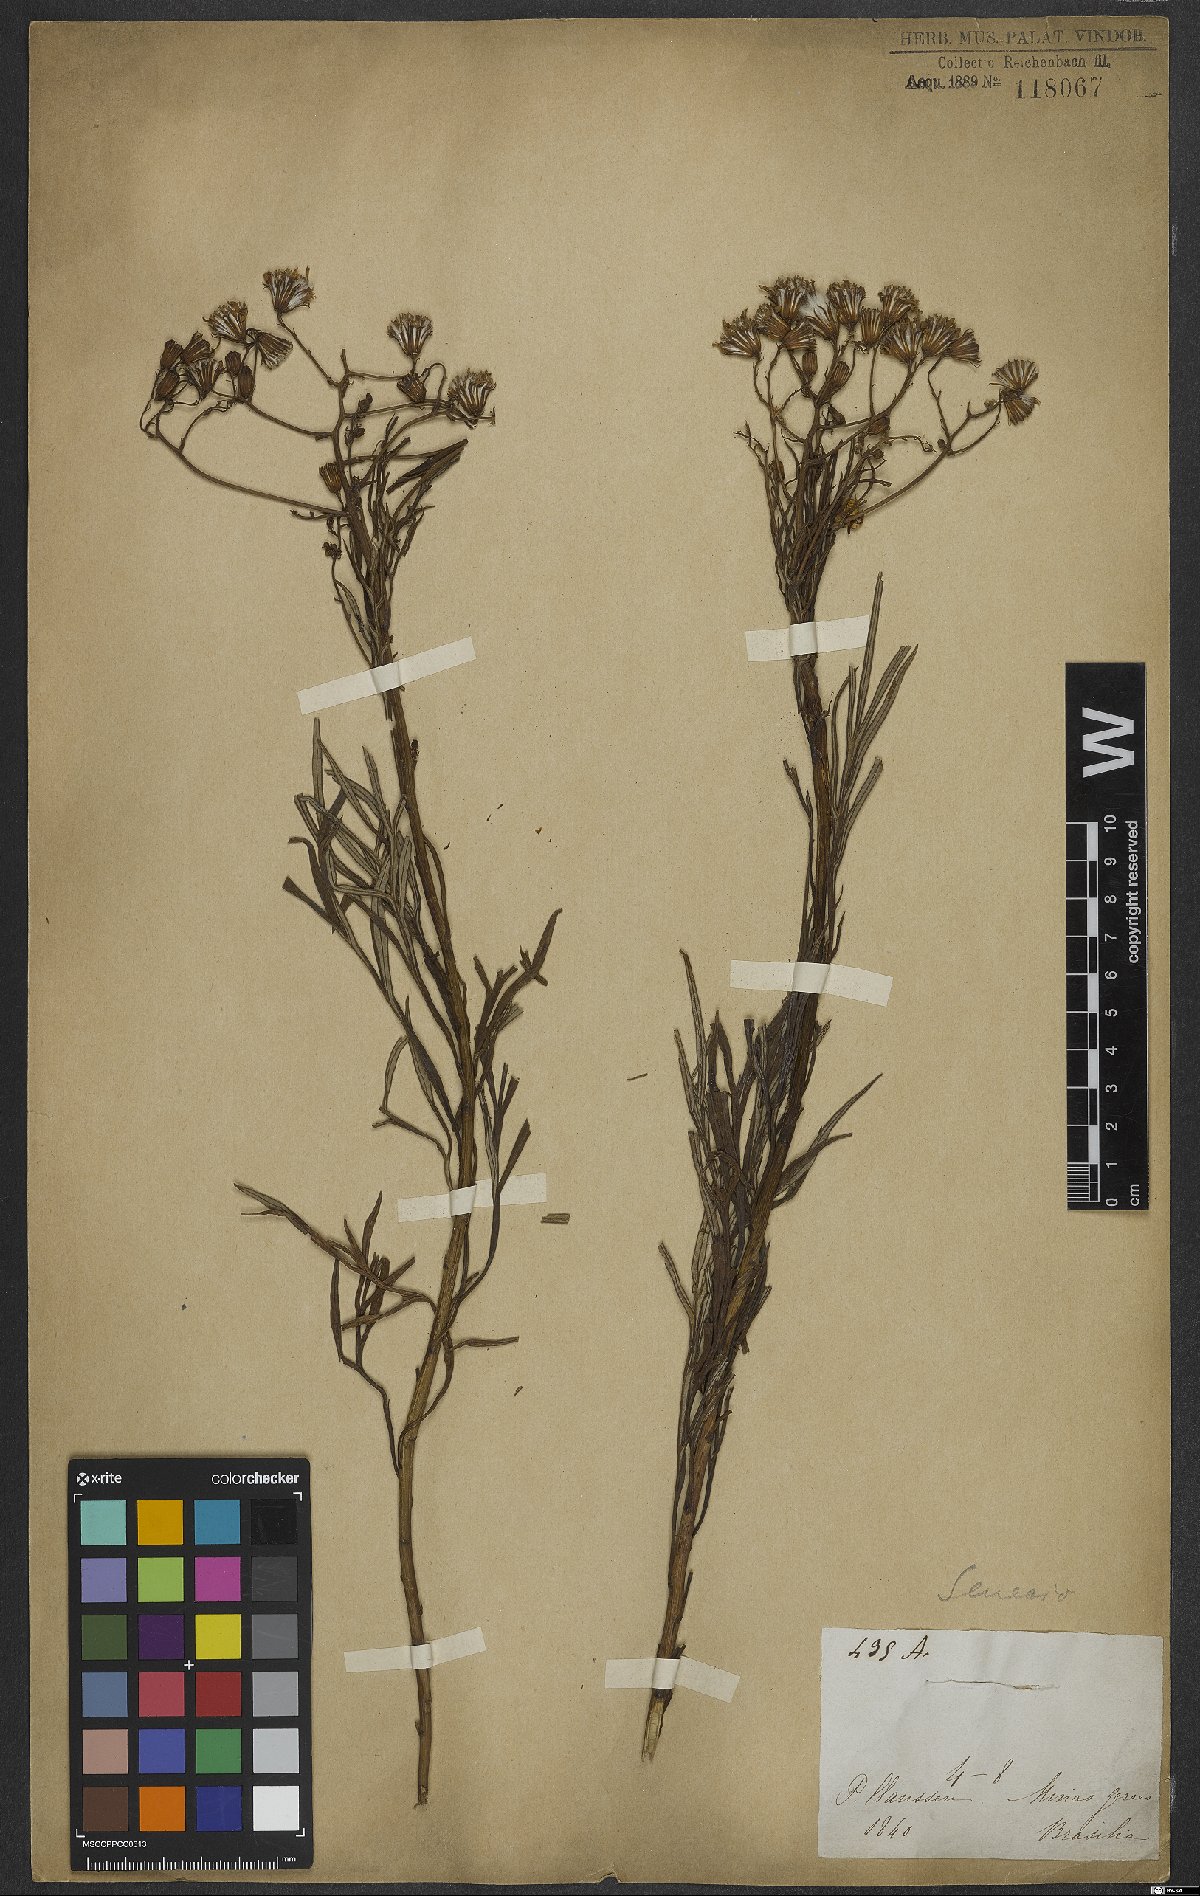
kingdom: Plantae
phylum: Tracheophyta
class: Magnoliopsida
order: Asterales
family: Asteraceae
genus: Senecio
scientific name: Senecio
